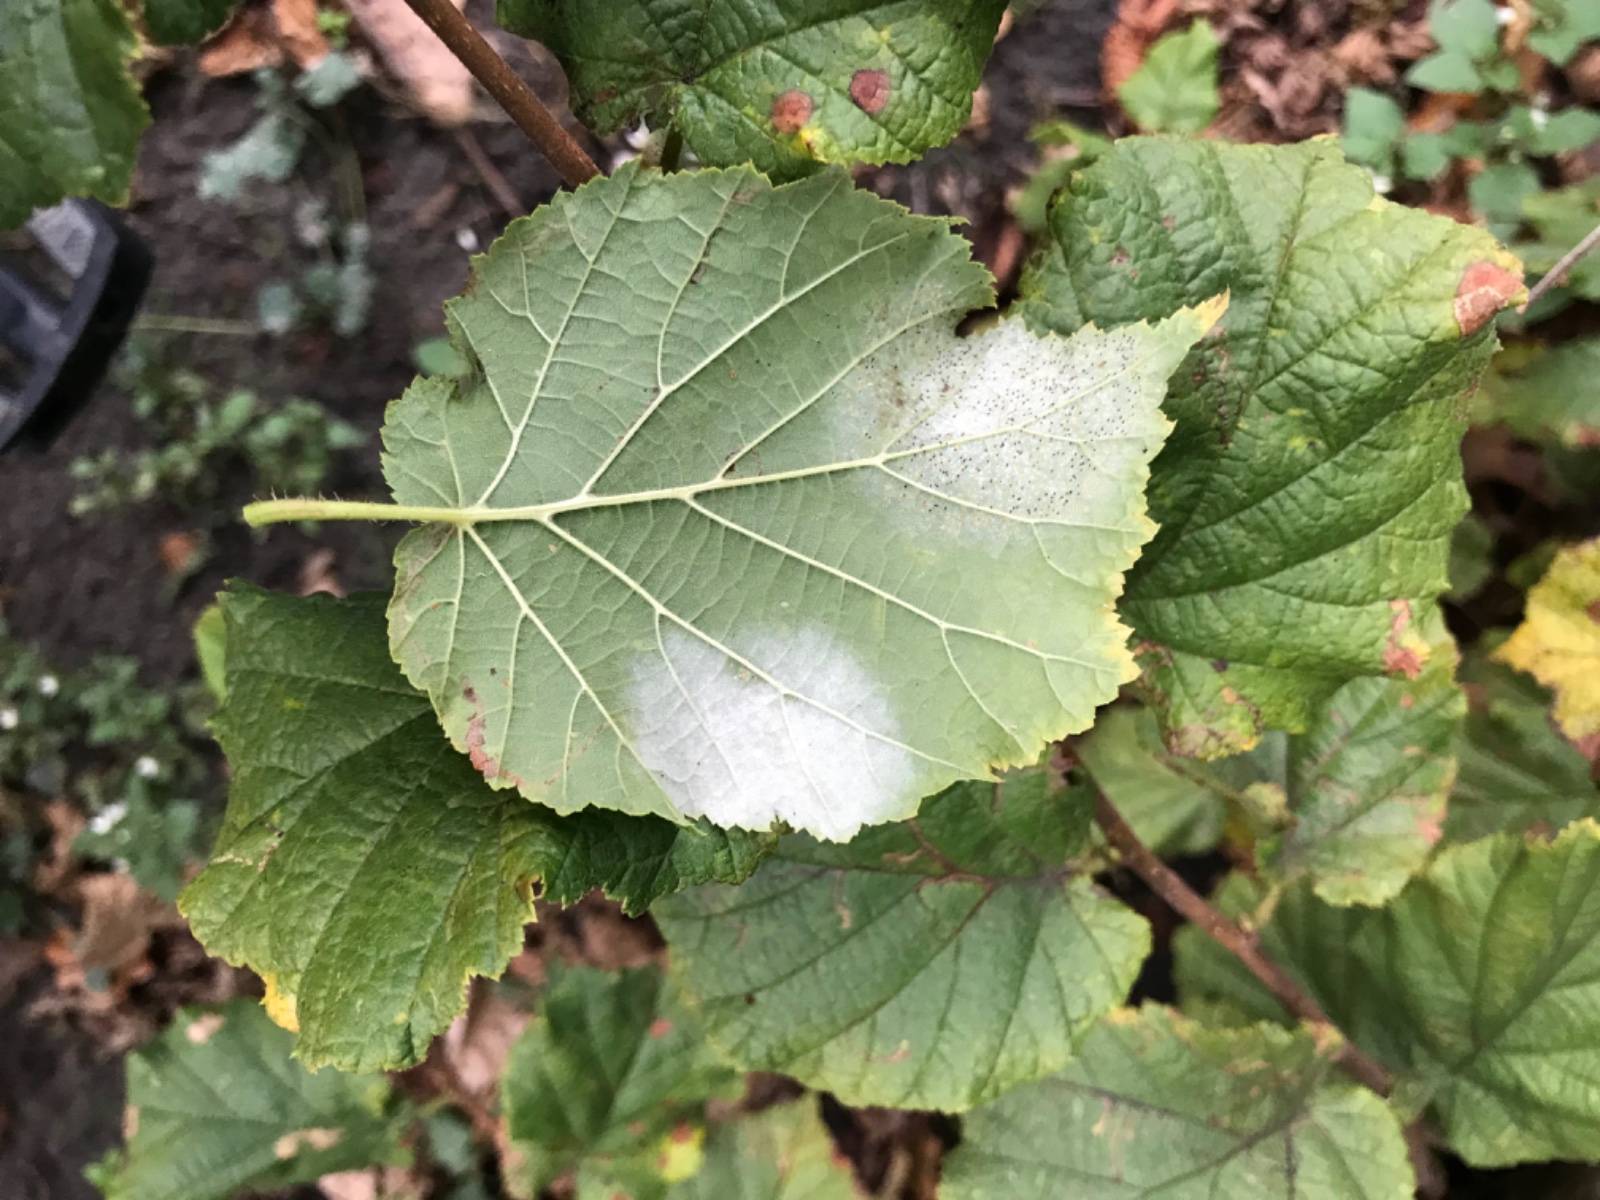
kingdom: Fungi
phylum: Ascomycota
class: Leotiomycetes
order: Helotiales
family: Erysiphaceae
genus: Phyllactinia
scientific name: Phyllactinia guttata
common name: hassel-meldug
